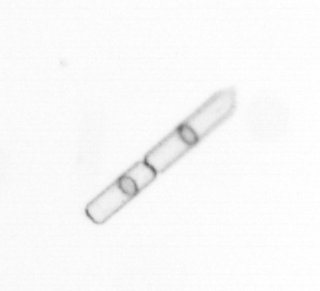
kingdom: Chromista
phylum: Ochrophyta
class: Bacillariophyceae
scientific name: Bacillariophyceae
